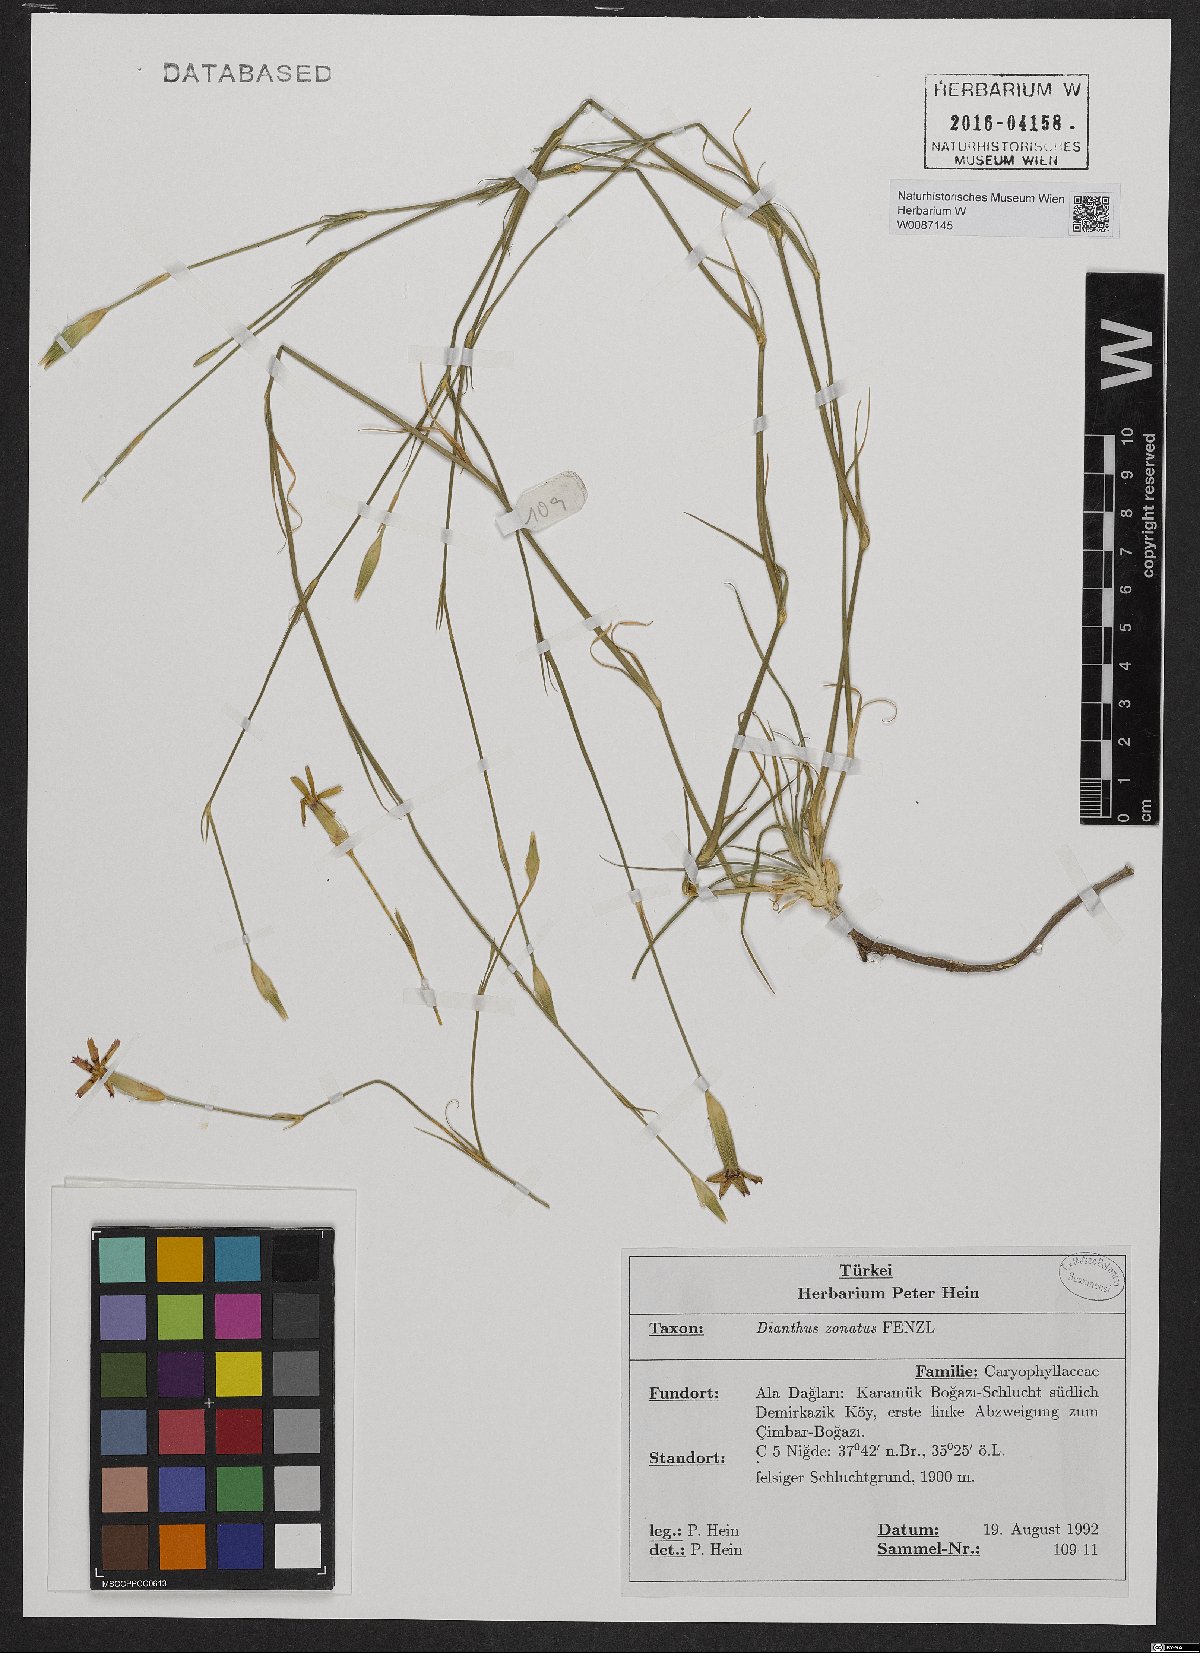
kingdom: Plantae
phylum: Tracheophyta
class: Magnoliopsida
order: Caryophyllales
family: Caryophyllaceae
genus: Dianthus
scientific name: Dianthus zonatus
